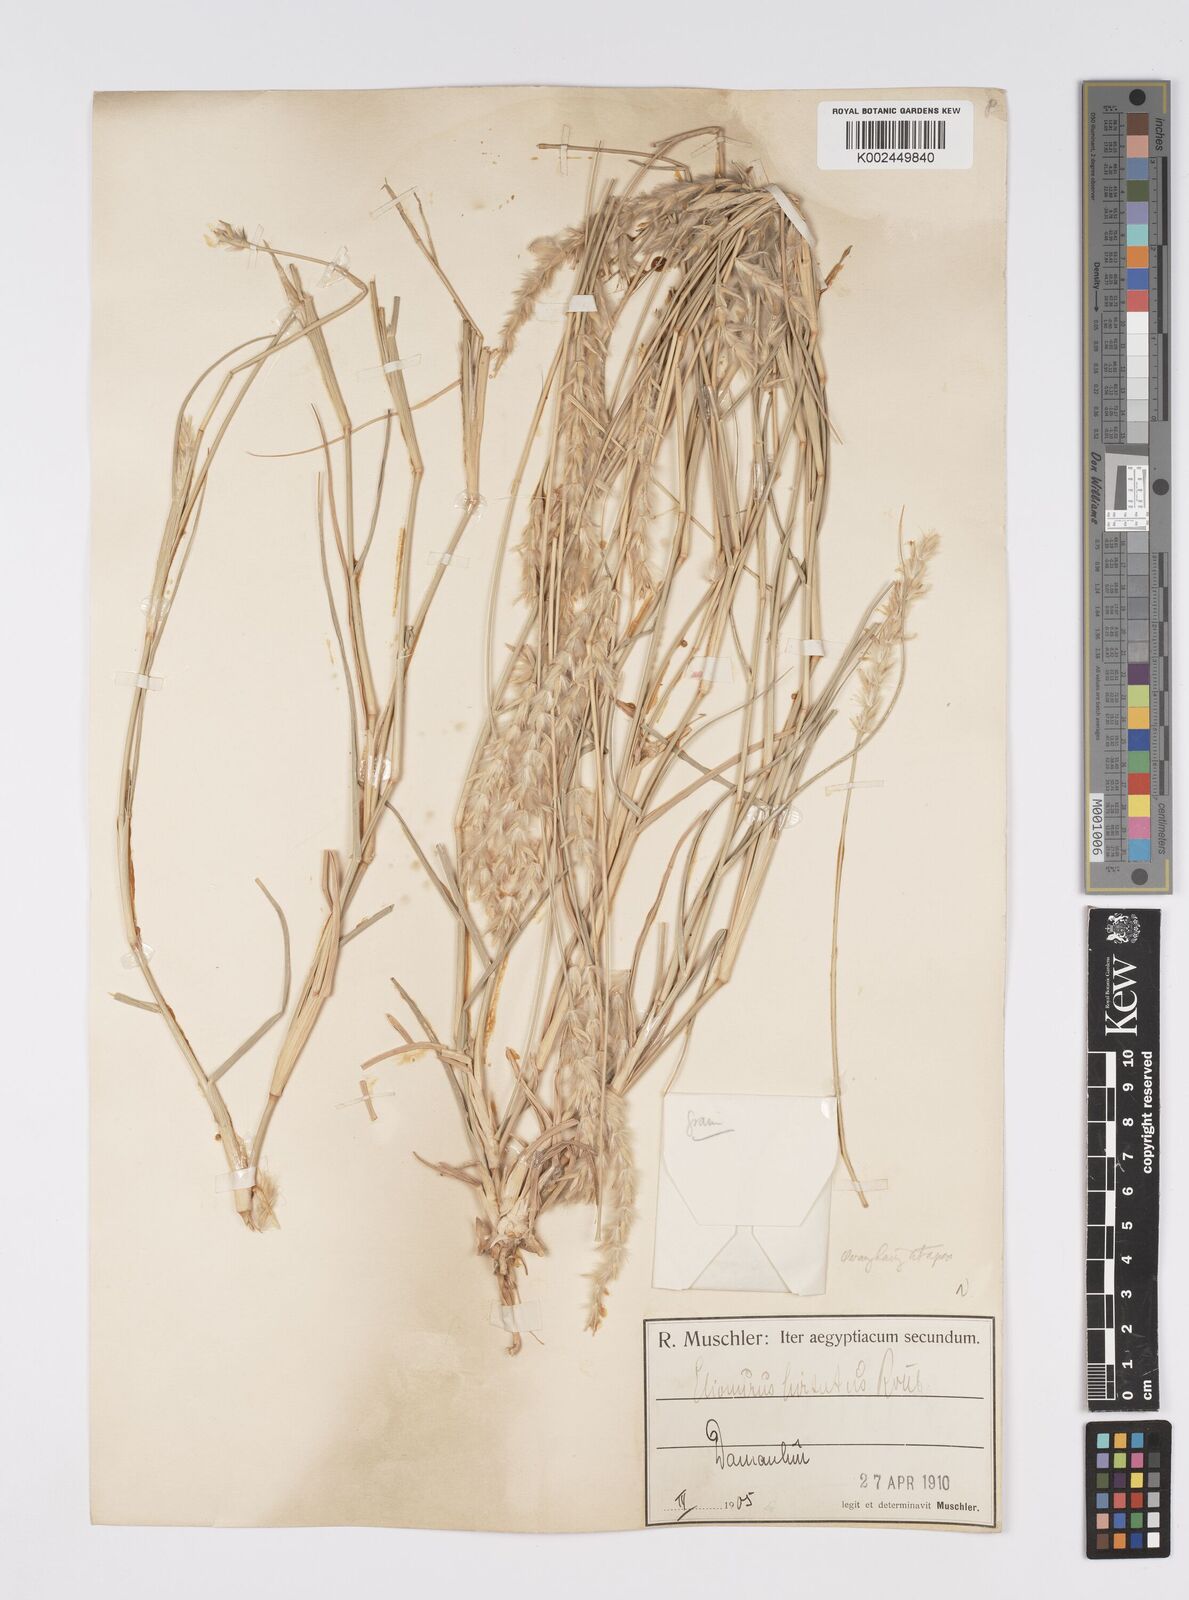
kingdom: Plantae
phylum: Tracheophyta
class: Liliopsida
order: Poales
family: Poaceae
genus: Lasiurus
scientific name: Lasiurus scindicus
